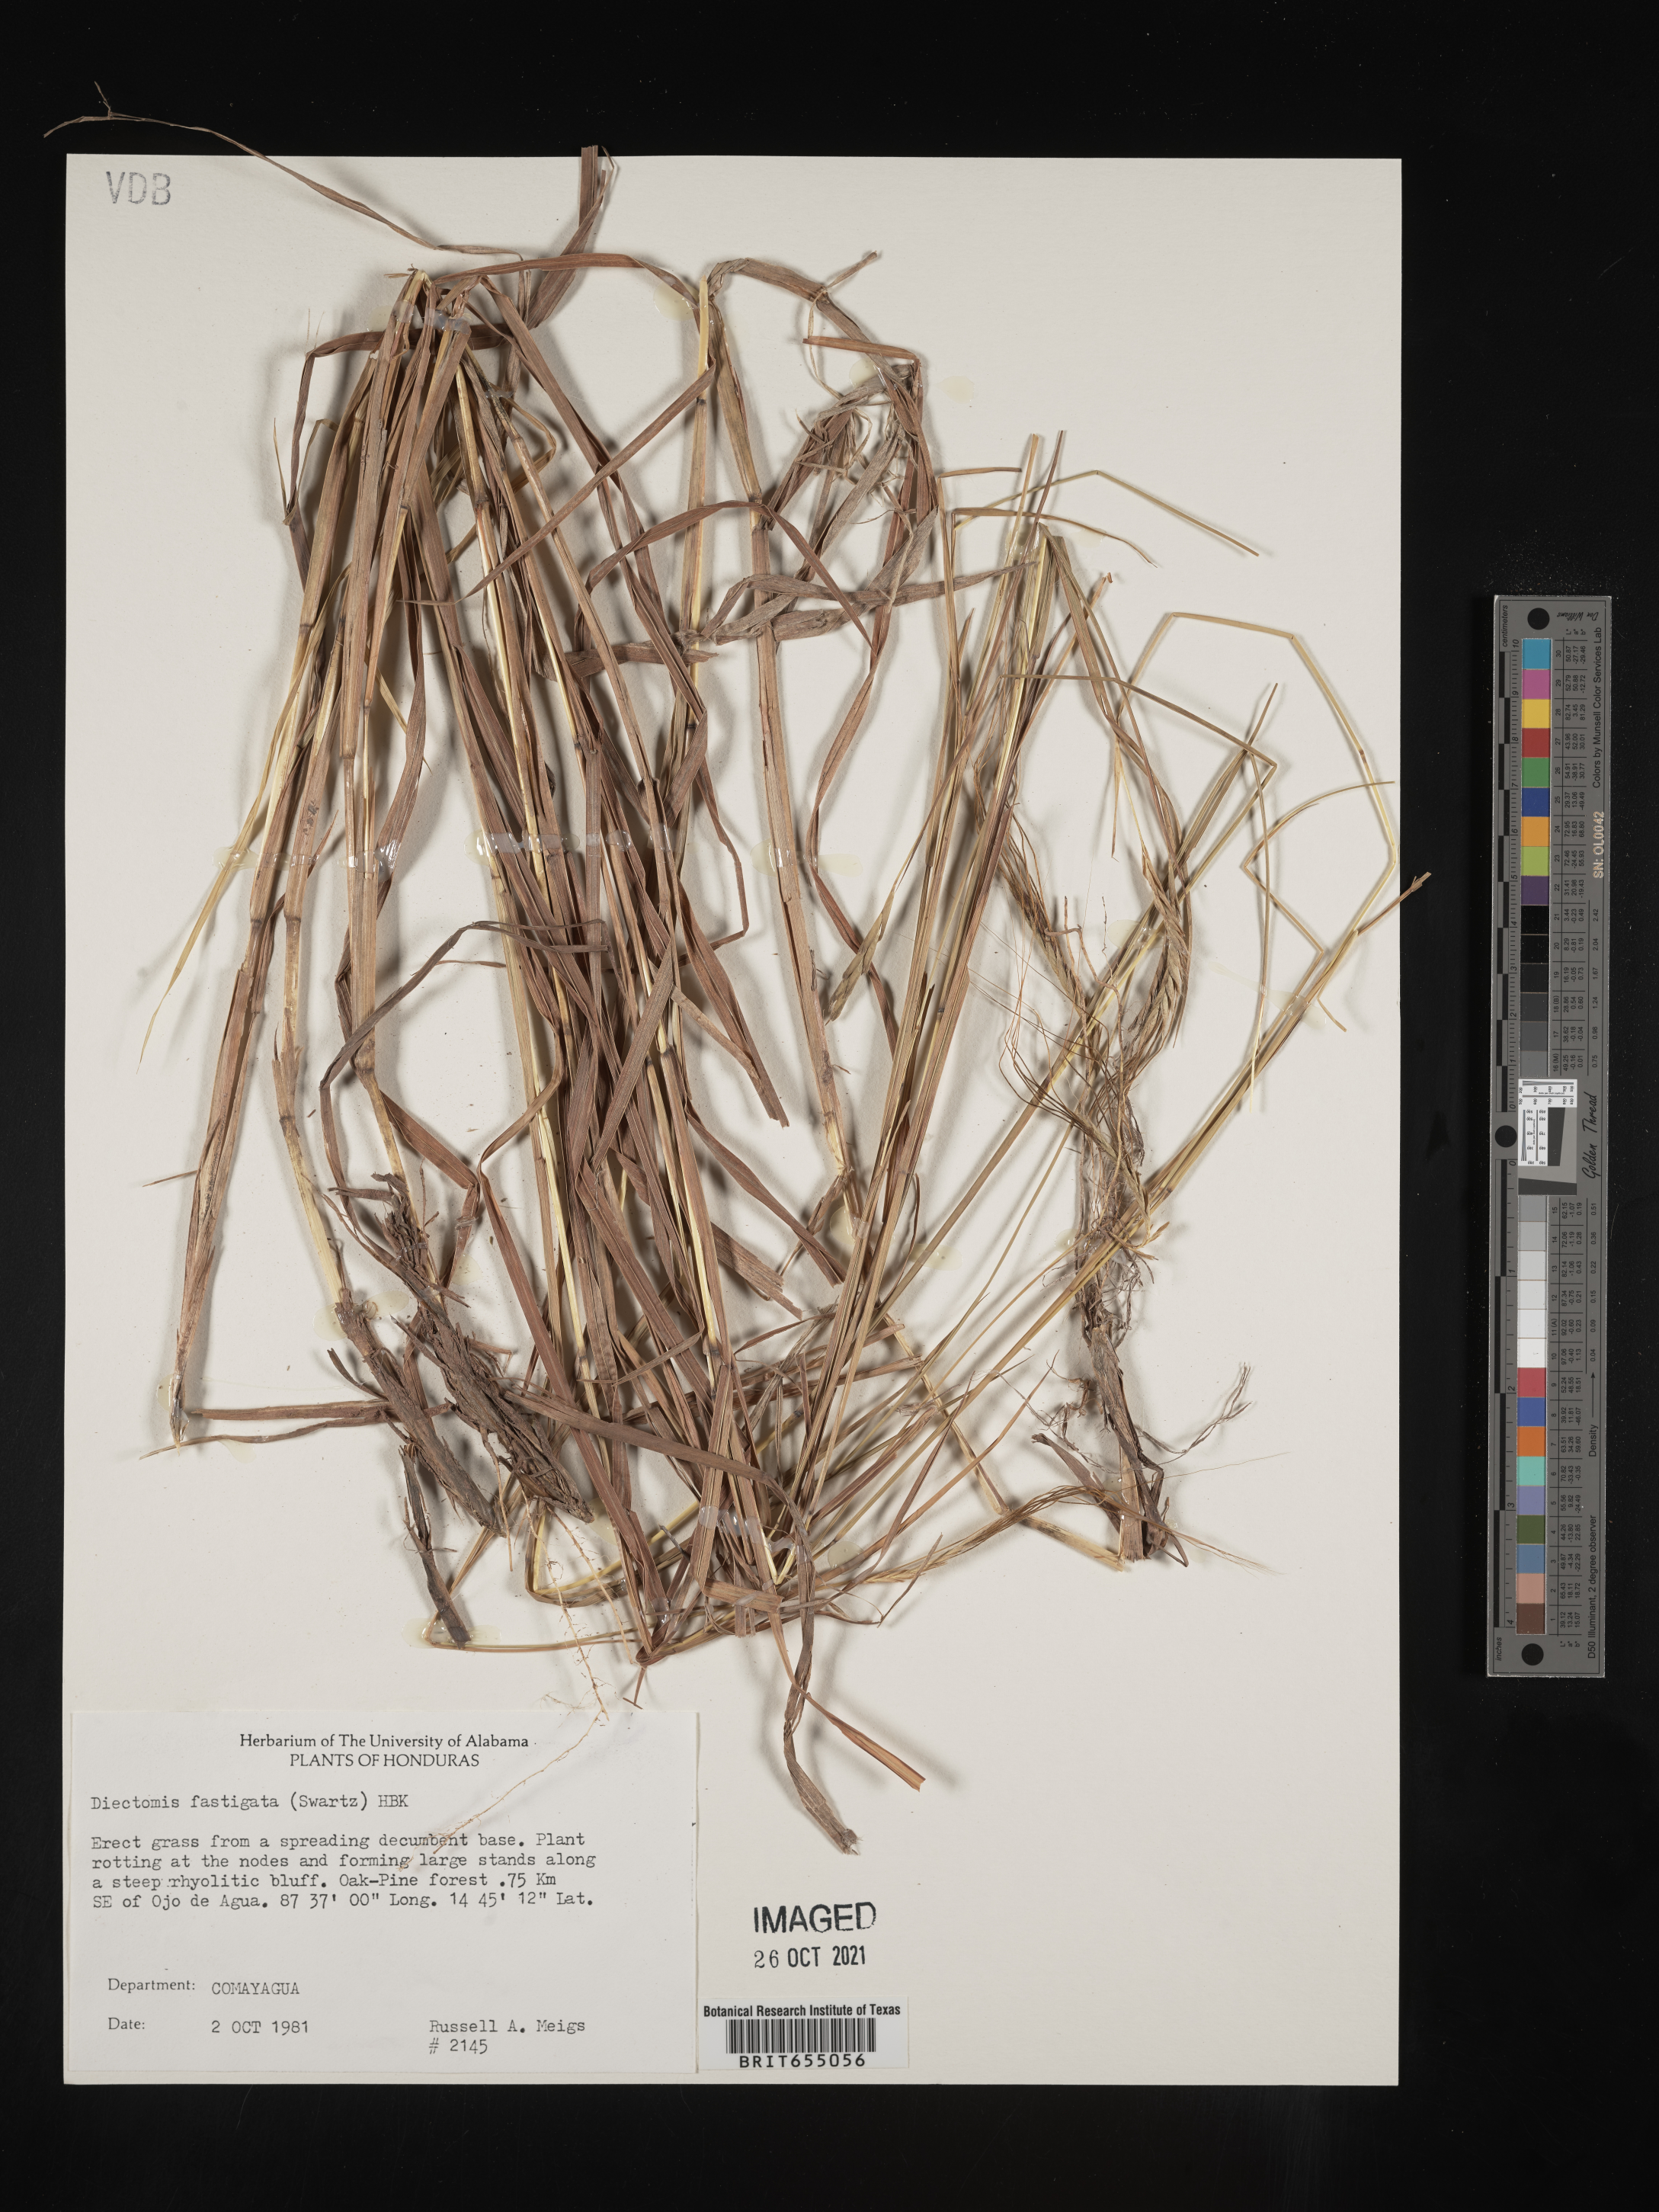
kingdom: Plantae
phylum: Tracheophyta
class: Liliopsida
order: Poales
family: Poaceae
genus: Diectomis
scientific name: Diectomis
